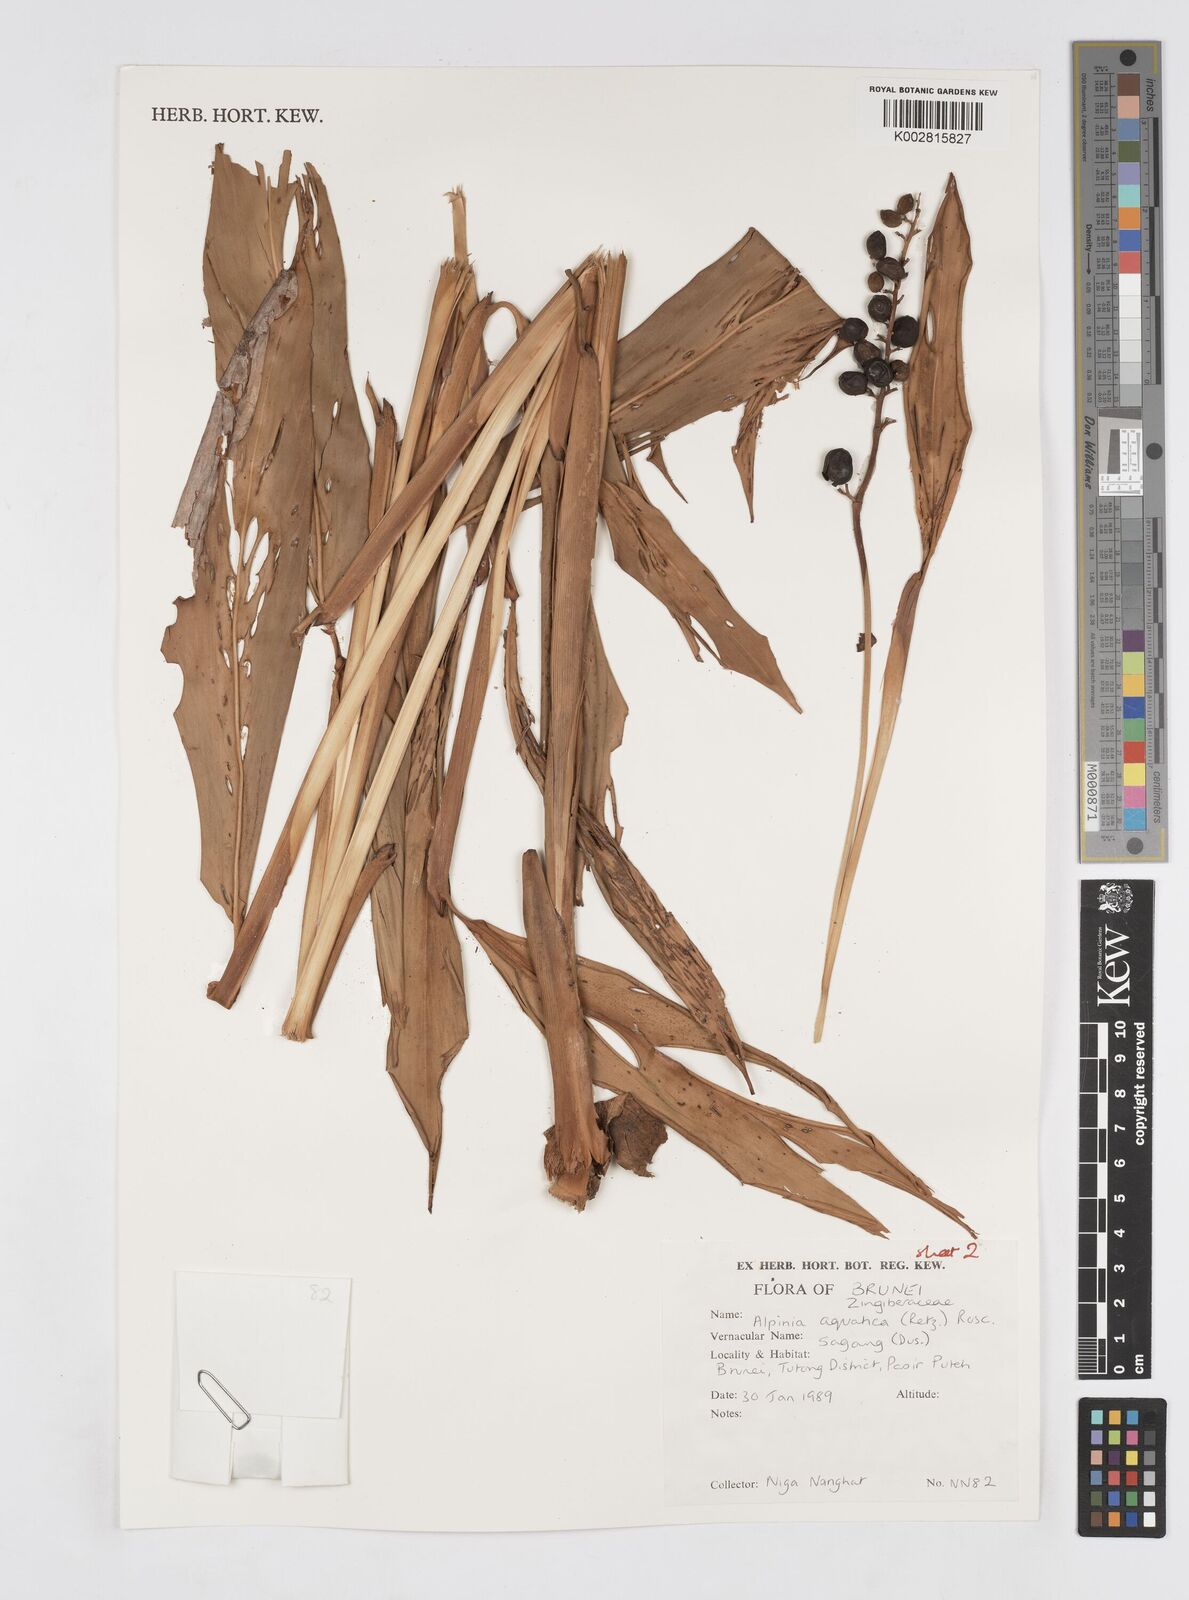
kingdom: Plantae
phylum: Tracheophyta
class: Liliopsida
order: Zingiberales
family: Zingiberaceae
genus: Alpinia
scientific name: Alpinia aquatica
